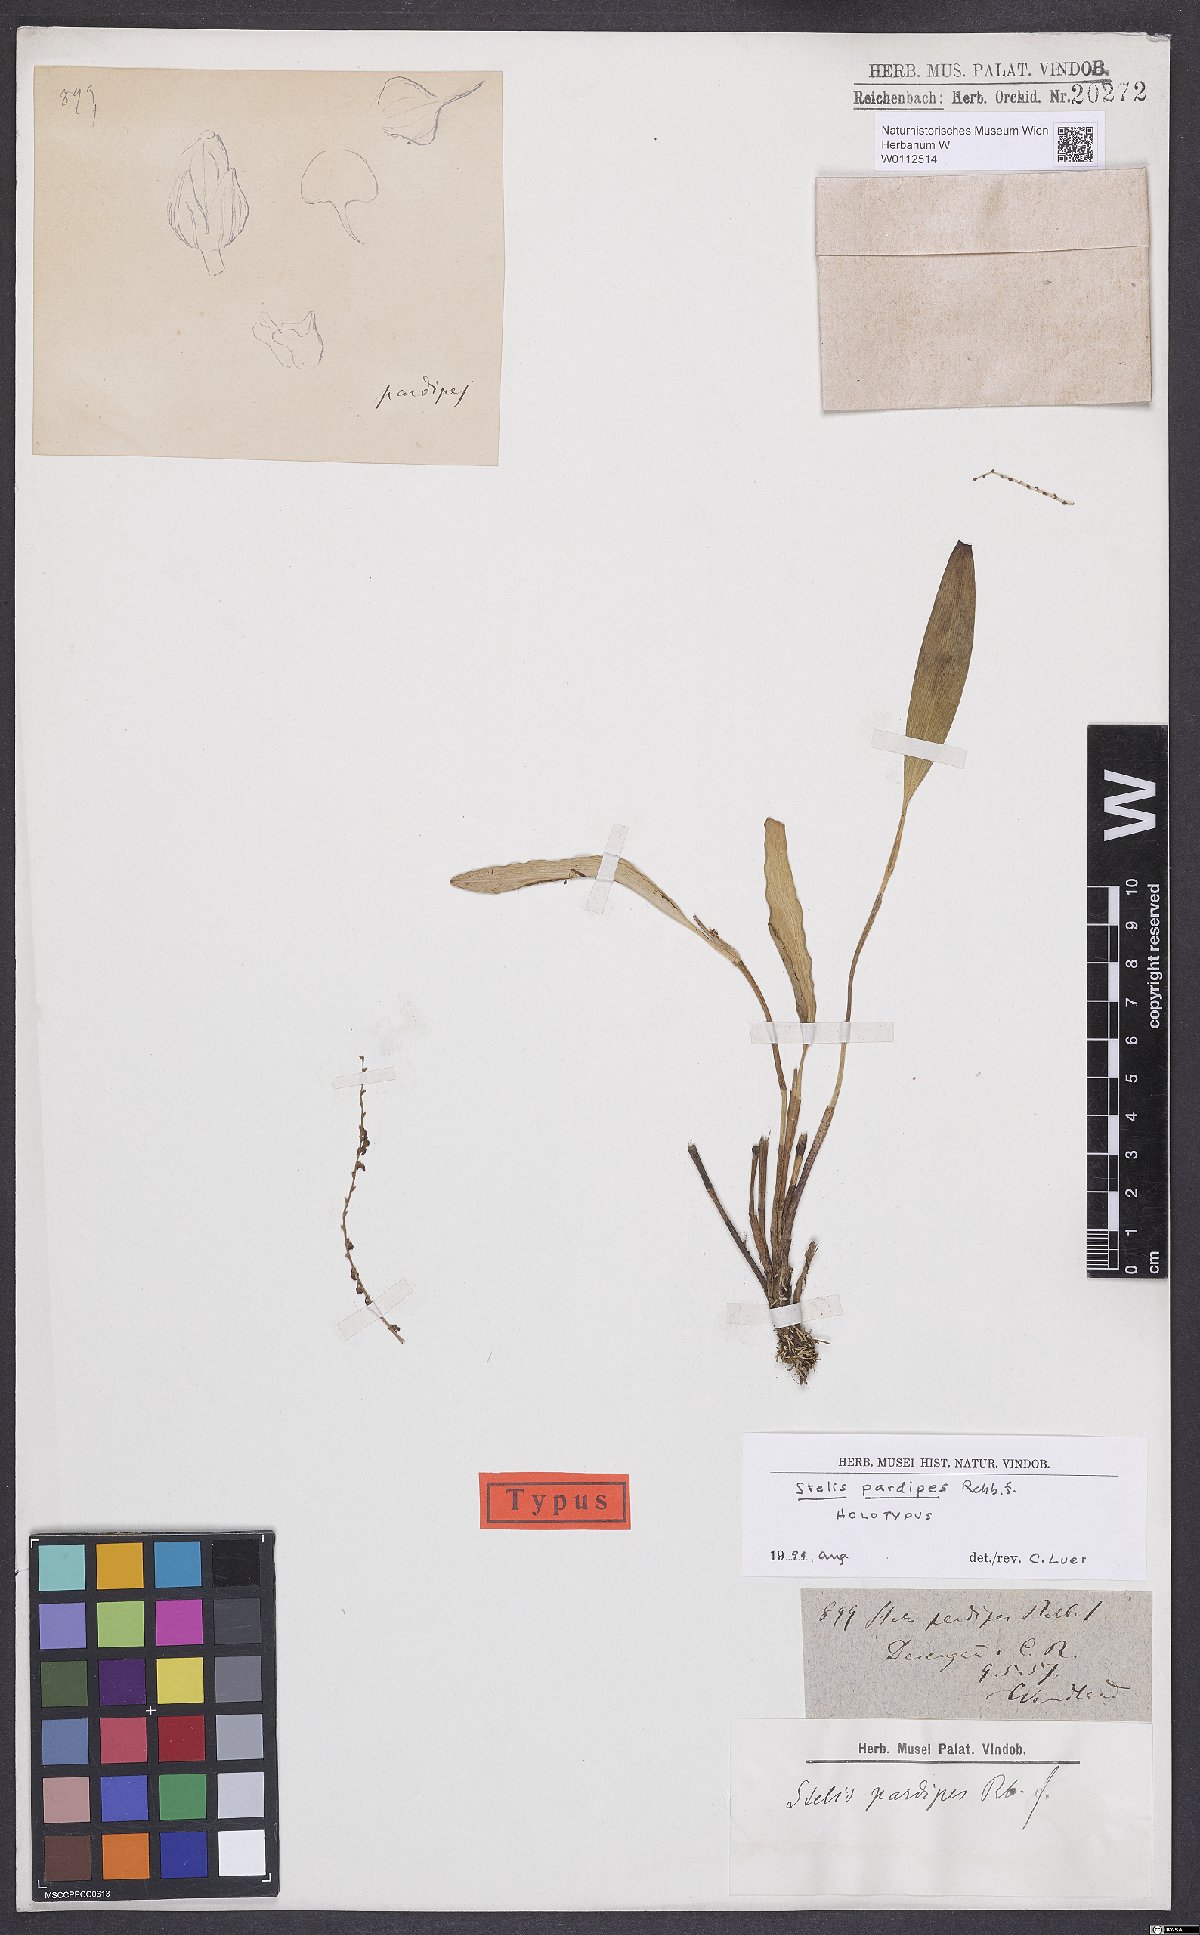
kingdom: Plantae
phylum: Tracheophyta
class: Liliopsida
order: Asparagales
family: Orchidaceae
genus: Stelis
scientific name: Stelis pardipes
